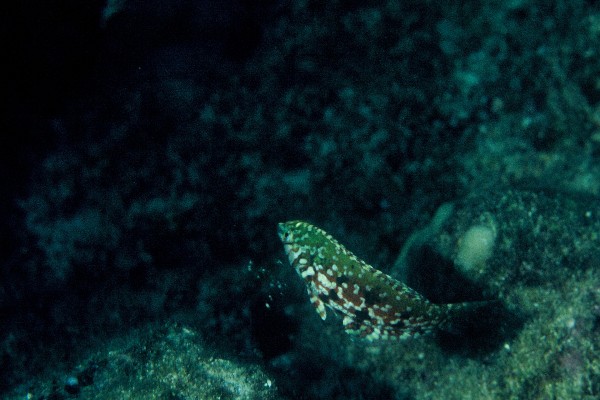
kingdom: Animalia
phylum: Chordata
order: Perciformes
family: Labridae
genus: Halichoeres
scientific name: Halichoeres lapillus
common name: Jewelled wrasse
